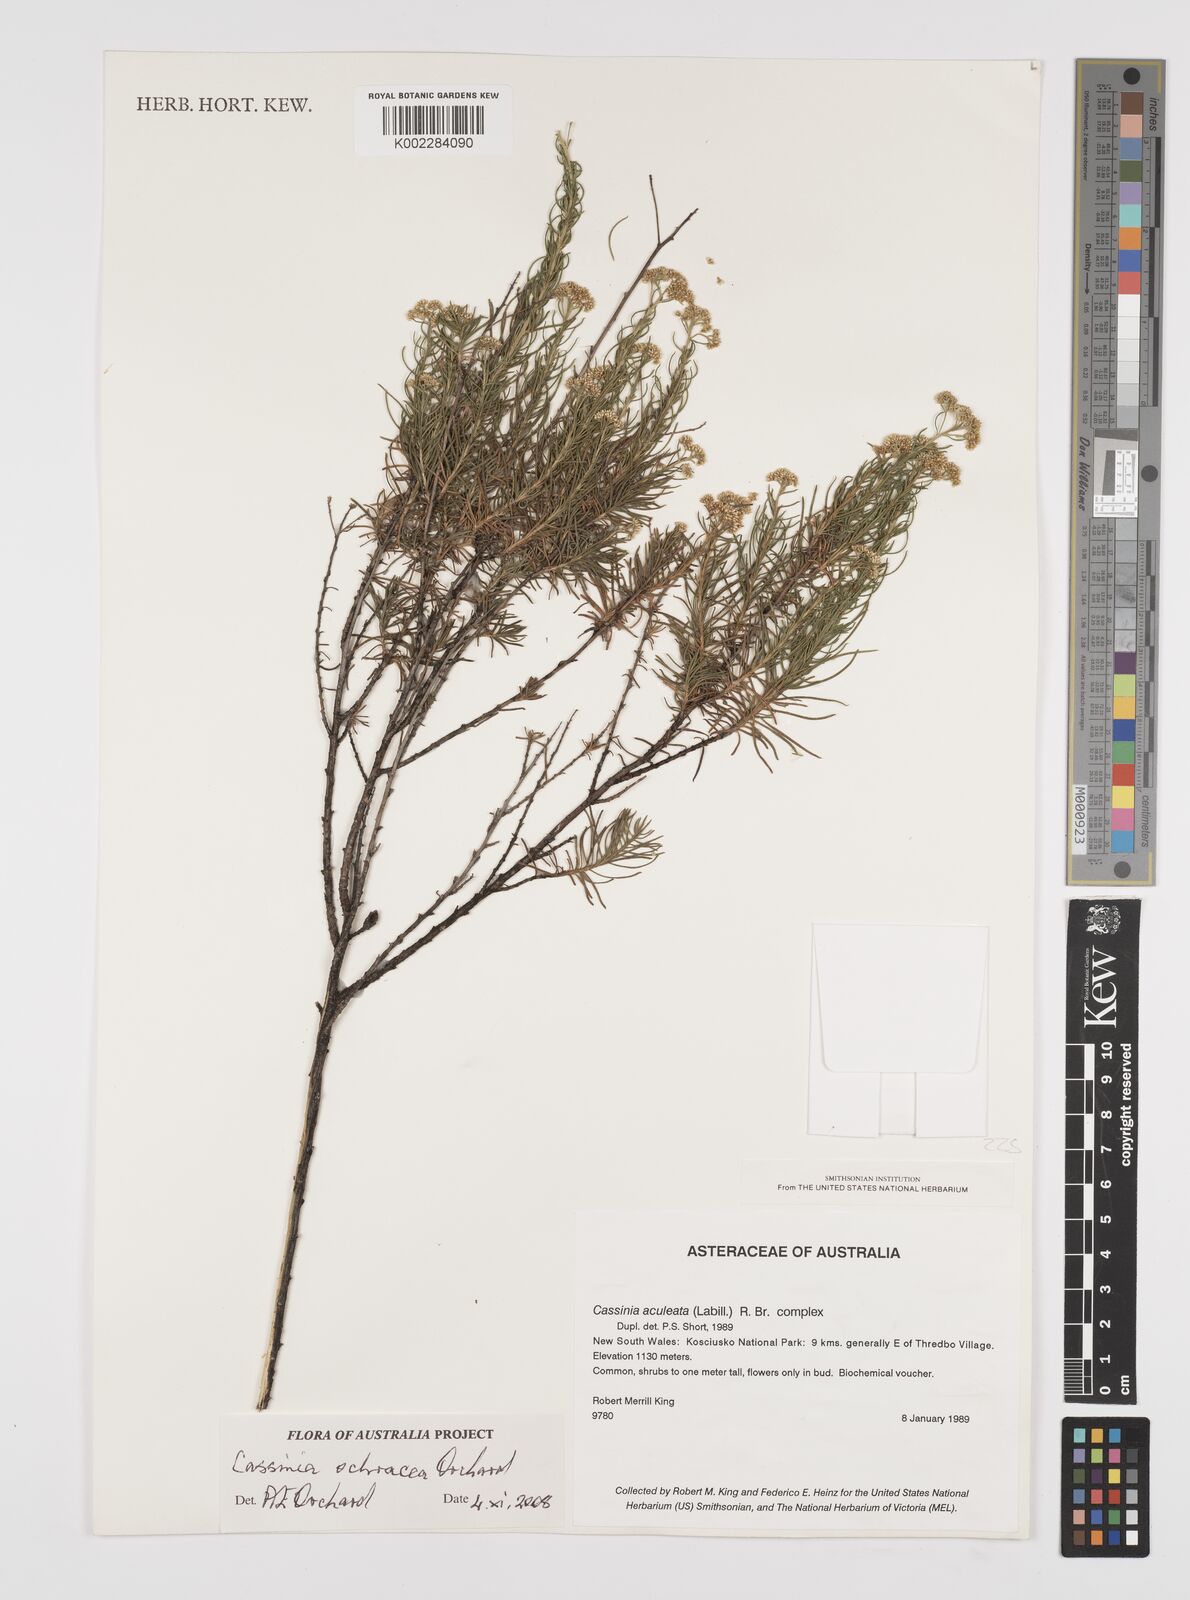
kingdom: Plantae
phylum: Tracheophyta
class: Magnoliopsida
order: Asterales
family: Asteraceae
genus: Cassinia
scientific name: Cassinia ochracea
